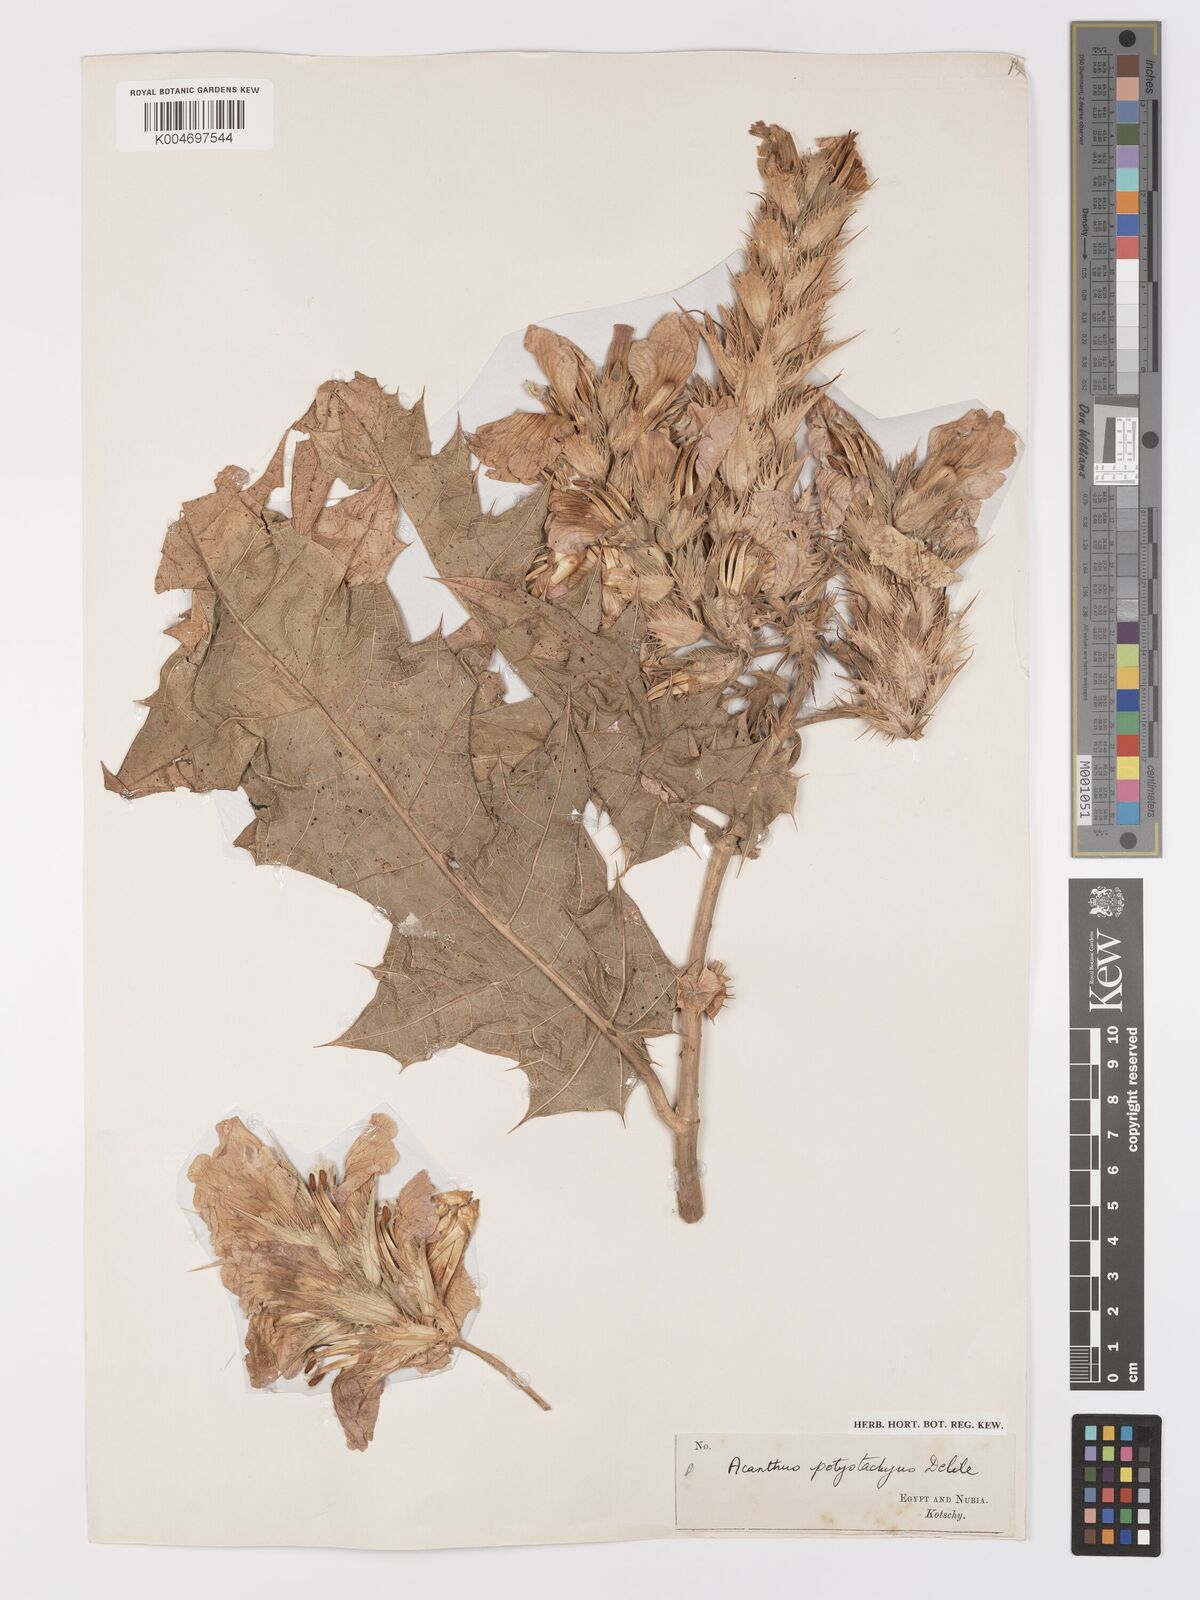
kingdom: Plantae
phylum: Tracheophyta
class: Magnoliopsida
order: Lamiales
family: Acanthaceae
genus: Acanthus
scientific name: Acanthus polystachyus
